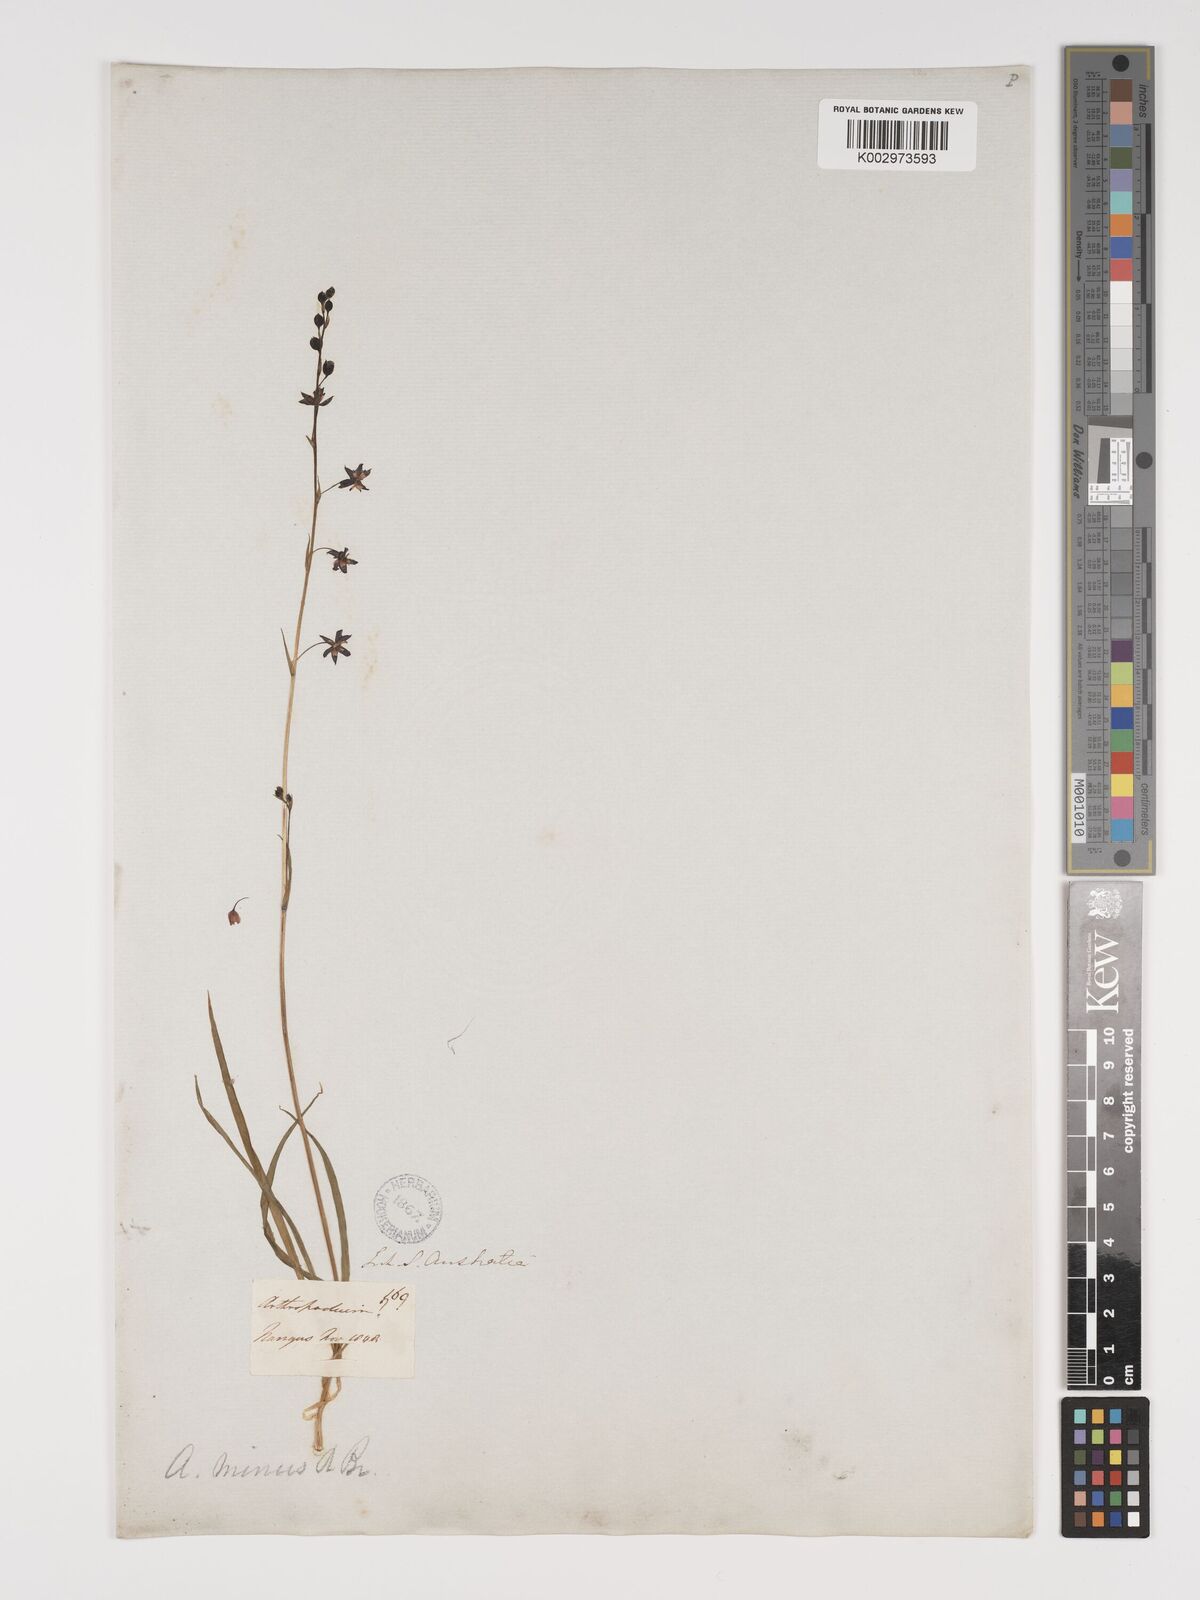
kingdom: Plantae
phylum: Tracheophyta
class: Liliopsida
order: Asparagales
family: Asparagaceae
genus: Arthropodium
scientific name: Arthropodium minus
